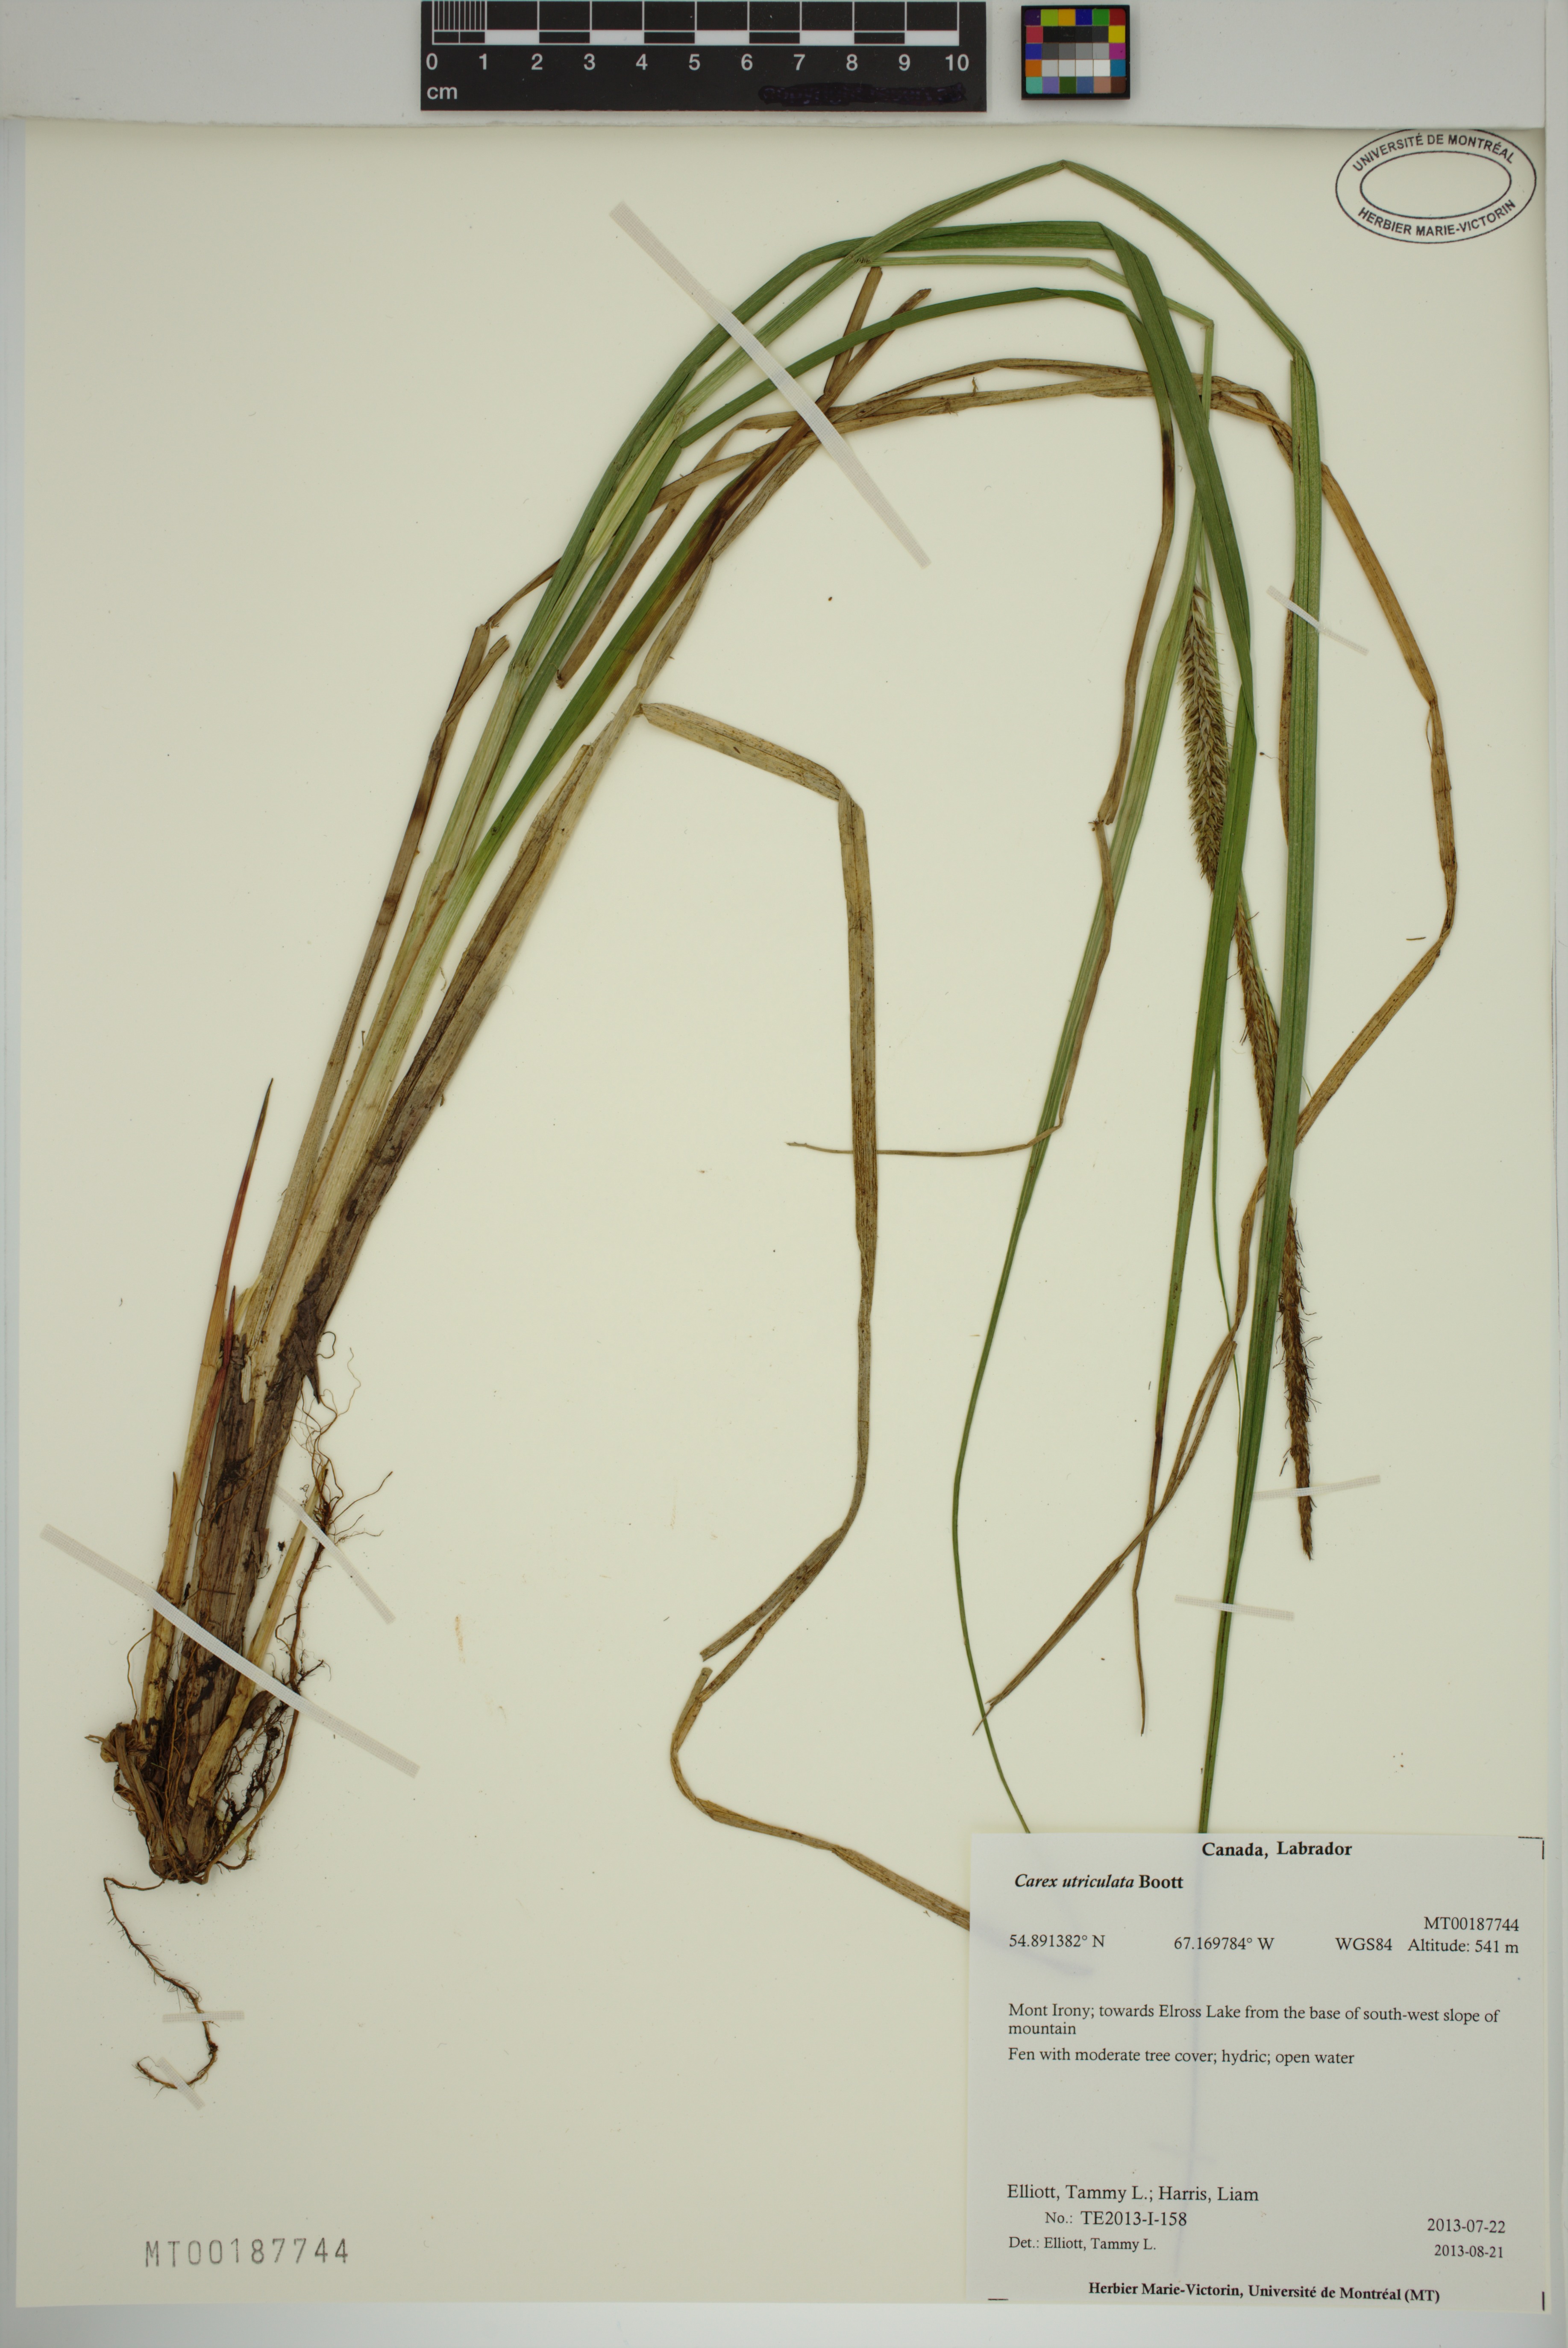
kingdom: Plantae
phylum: Tracheophyta
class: Liliopsida
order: Poales
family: Cyperaceae
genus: Carex
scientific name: Carex utriculata
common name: Beaked sedge
